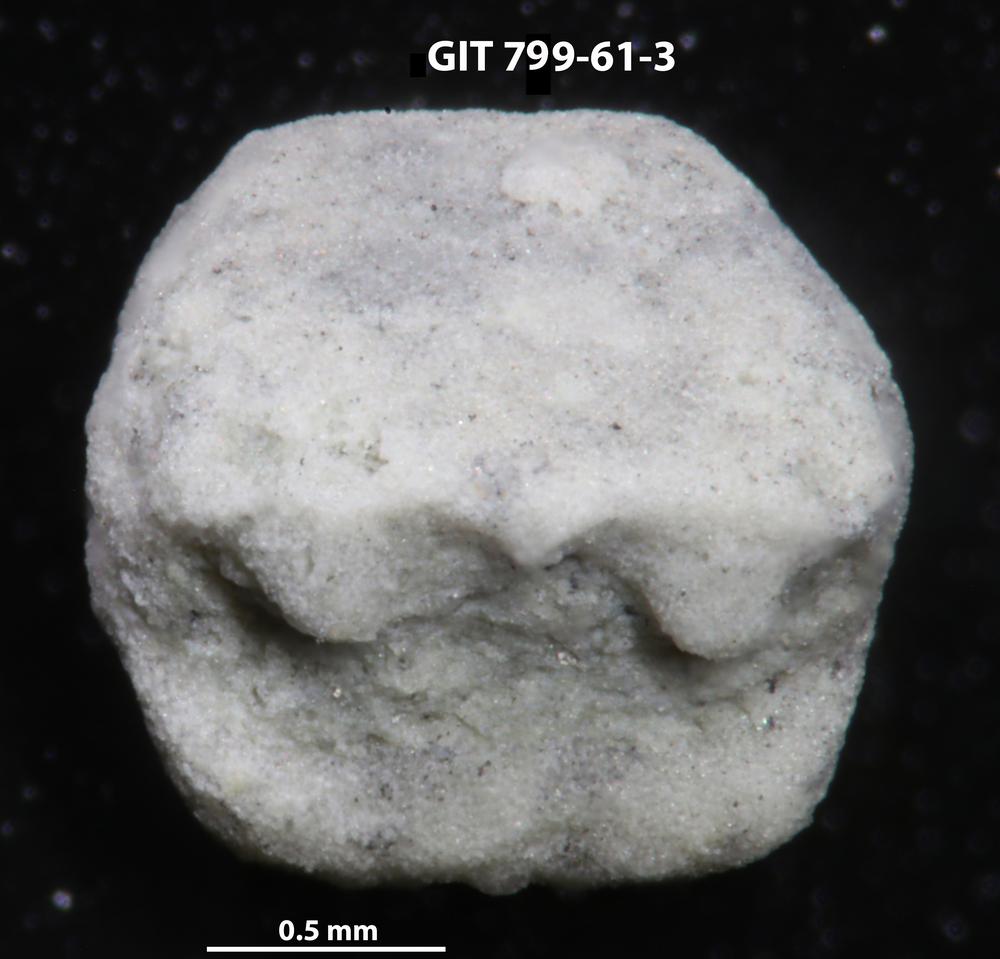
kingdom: Animalia
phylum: Echinodermata
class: Crinoidea
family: Cyclocystoididae
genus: Polytryphocycloides
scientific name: Polytryphocycloides
